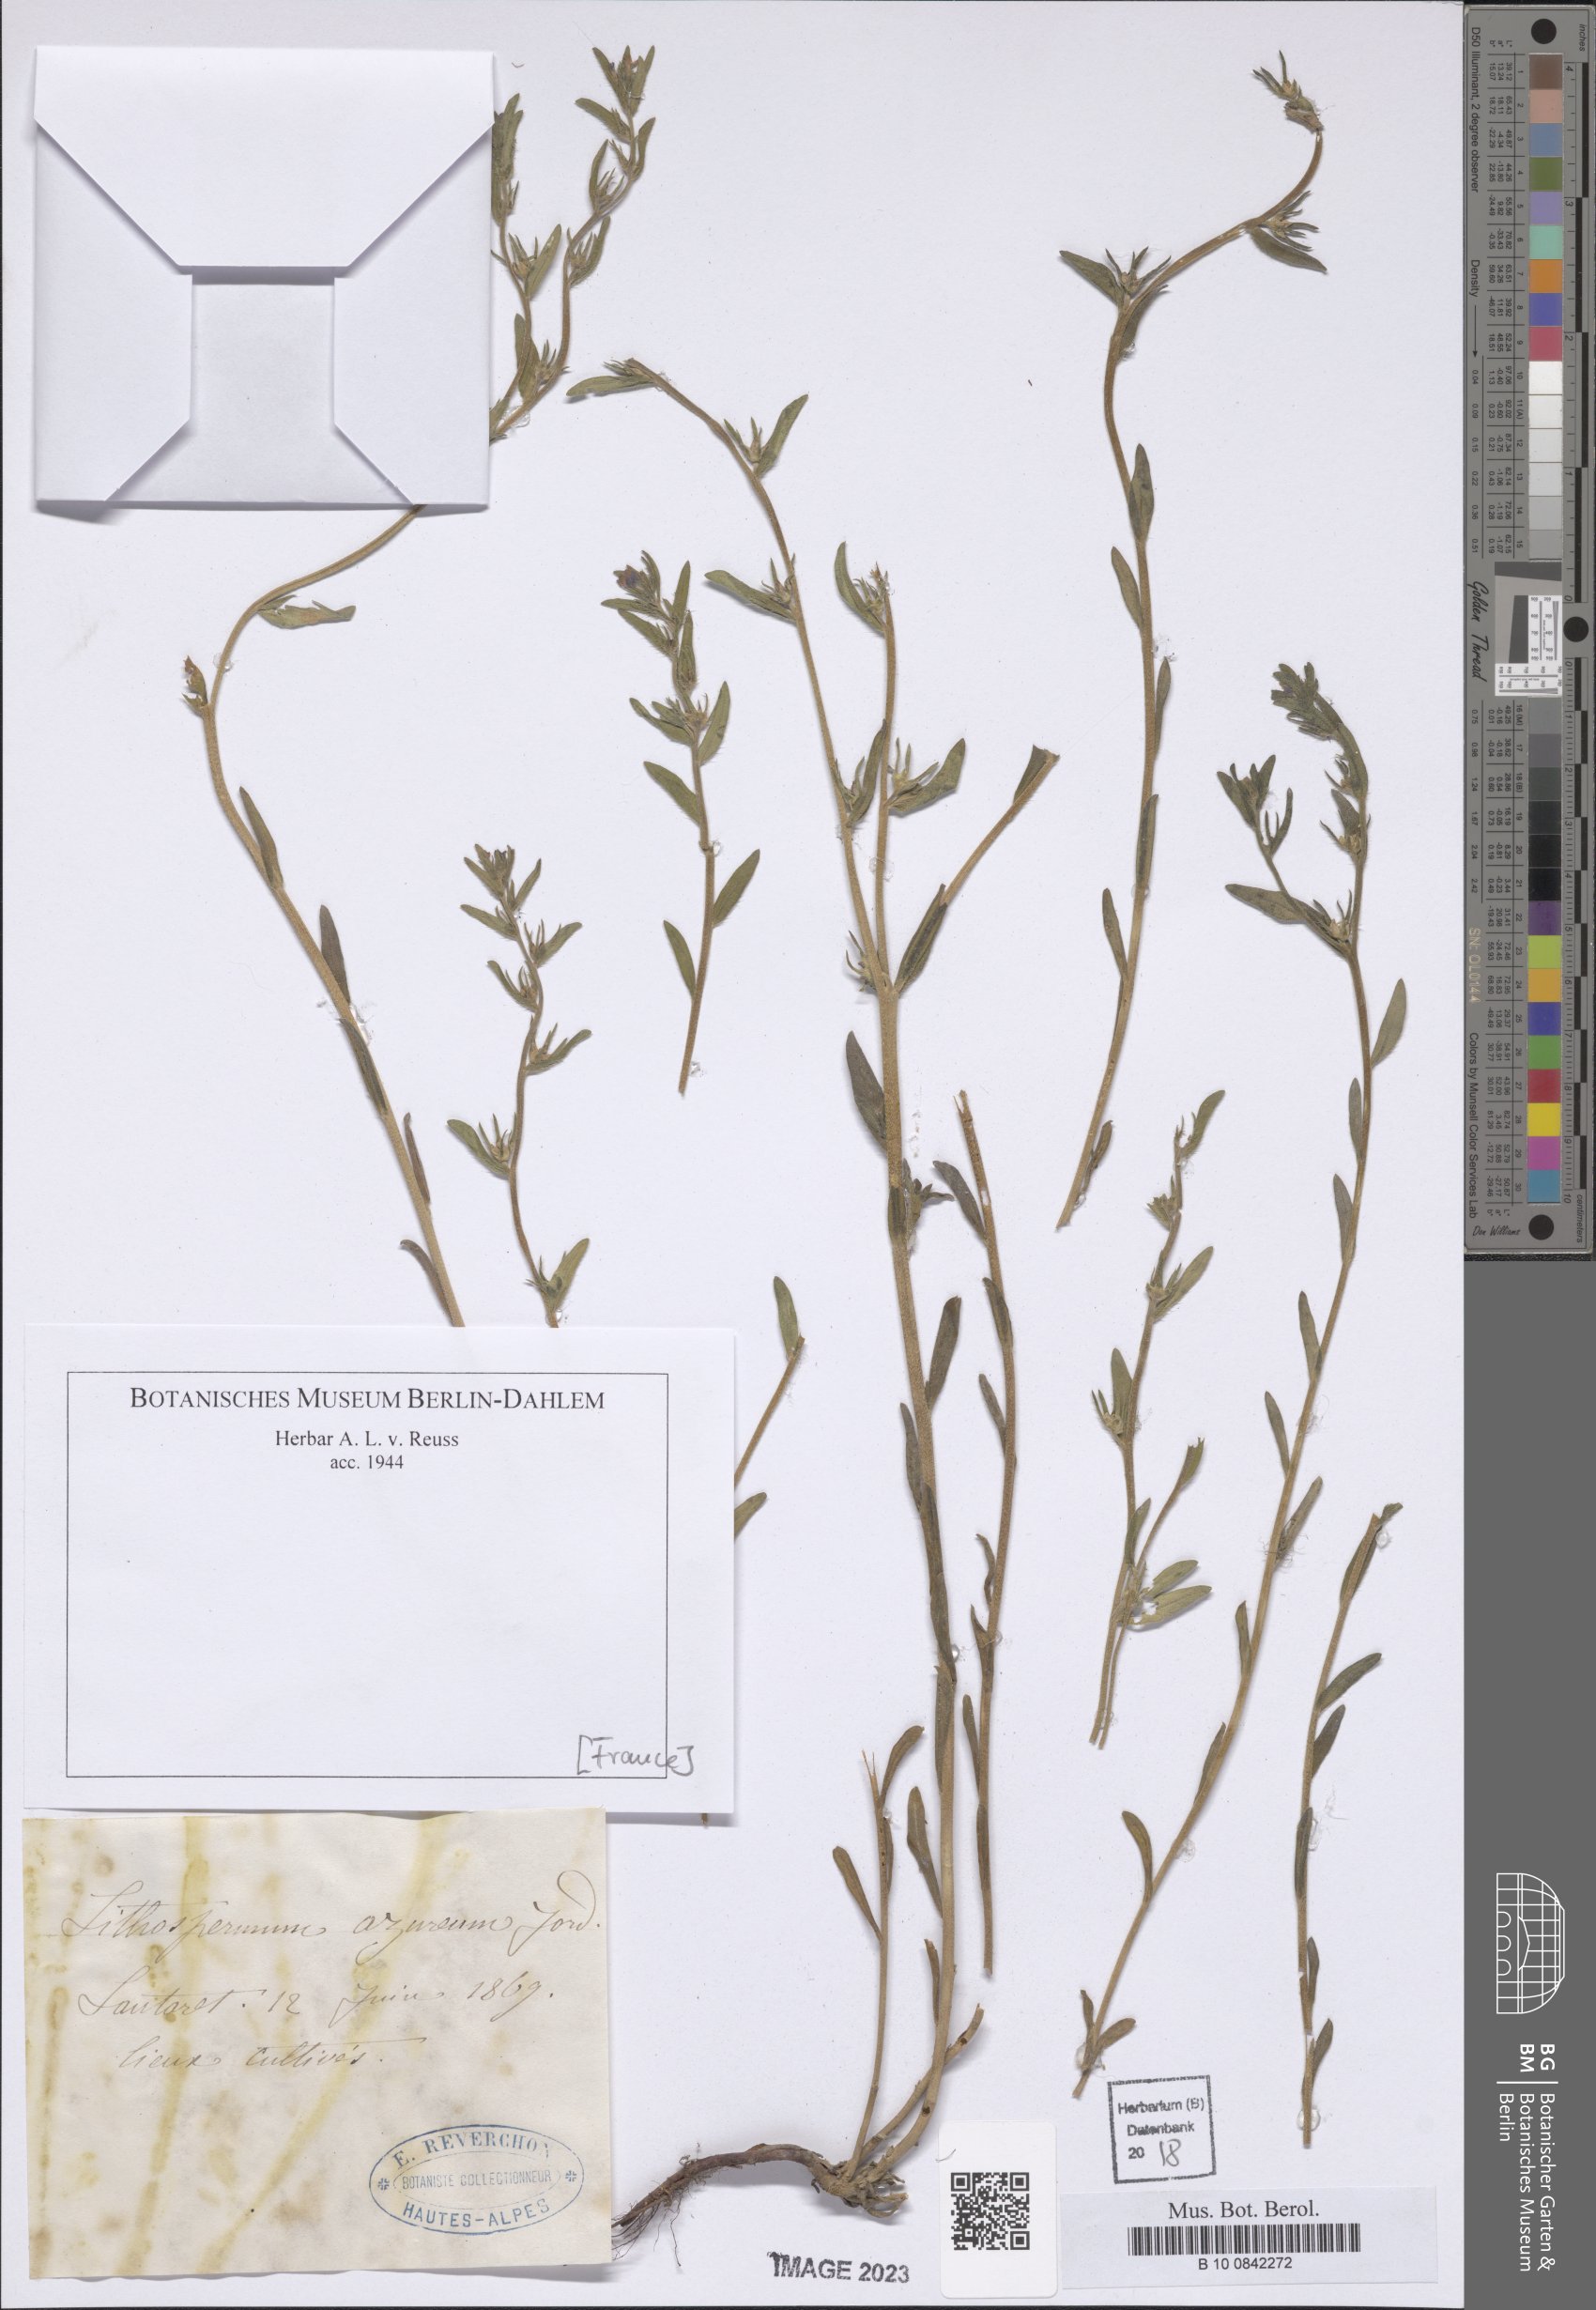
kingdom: Plantae
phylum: Tracheophyta
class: Magnoliopsida
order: Boraginales
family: Boraginaceae
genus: Lithospermum
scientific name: Lithospermum
